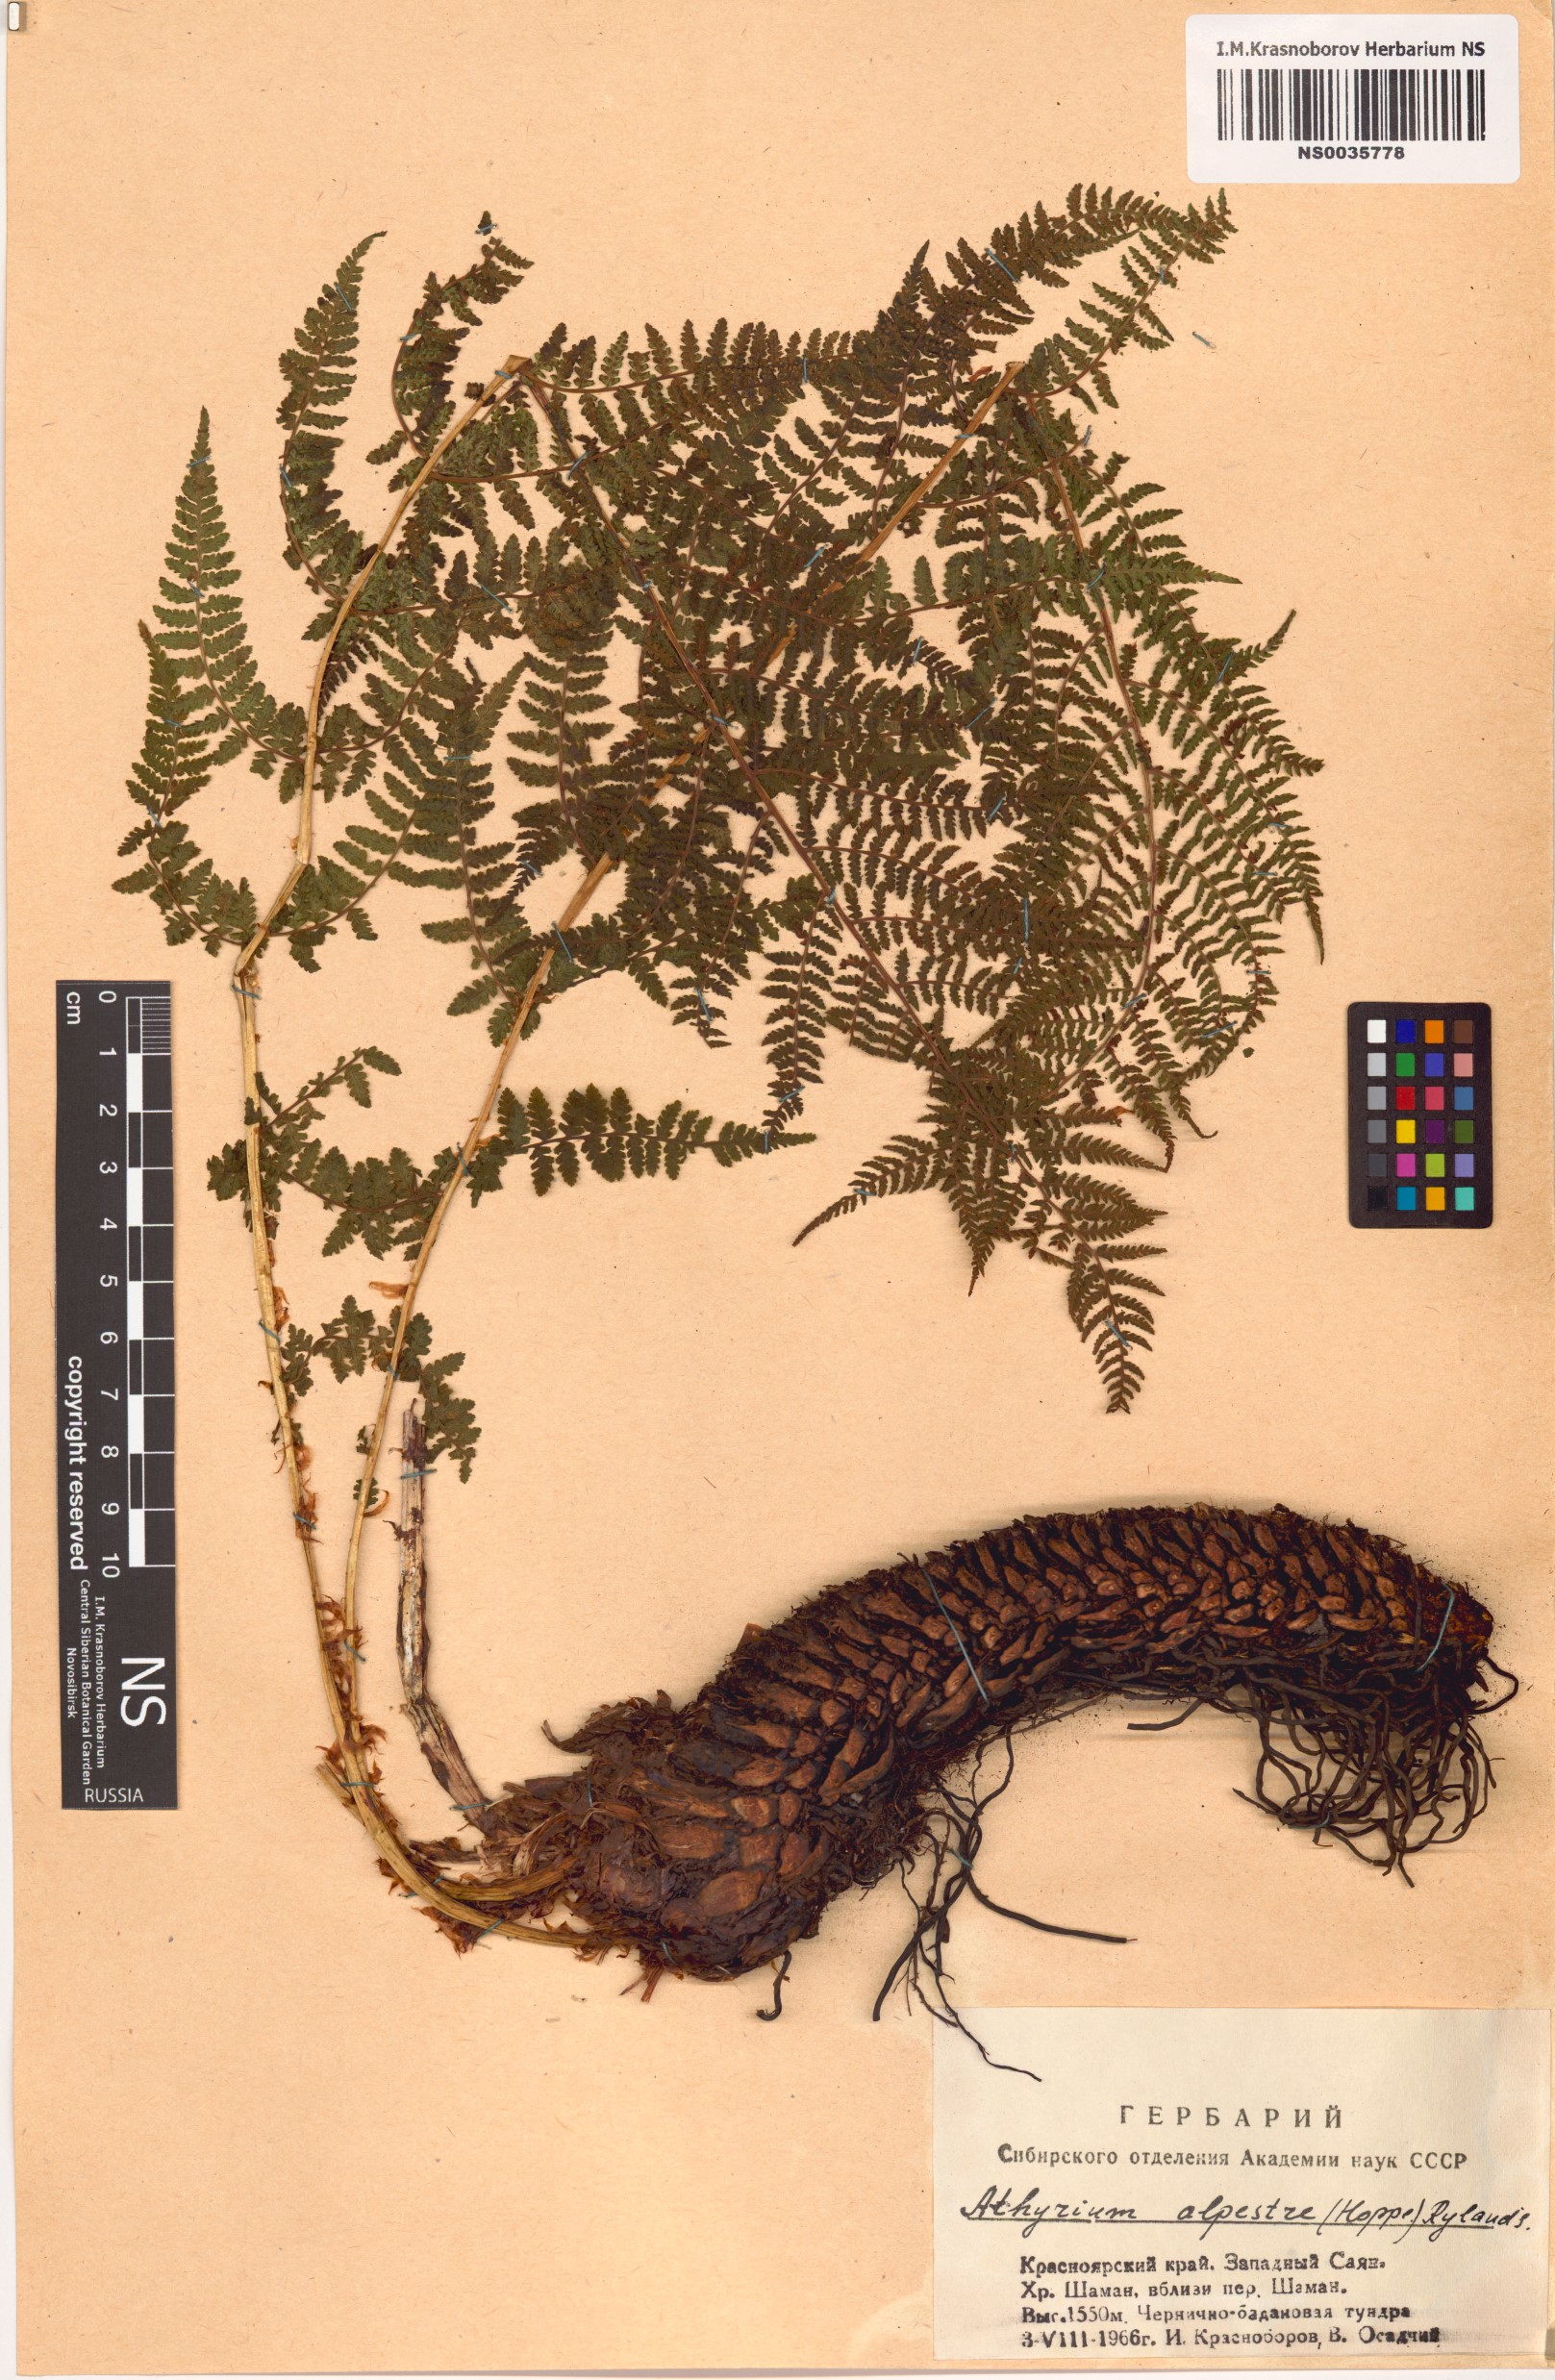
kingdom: Plantae
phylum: Tracheophyta
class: Polypodiopsida
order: Polypodiales
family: Athyriaceae
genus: Pseudathyrium
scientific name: Pseudathyrium alpestre
